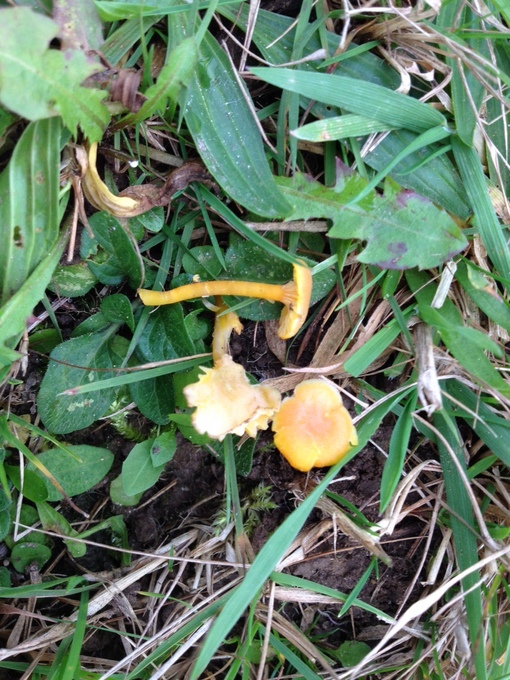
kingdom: Fungi
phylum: Basidiomycota
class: Agaricomycetes
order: Agaricales
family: Hygrophoraceae
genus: Hygrocybe
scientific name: Hygrocybe cantharellus
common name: kantarel-vokshat
